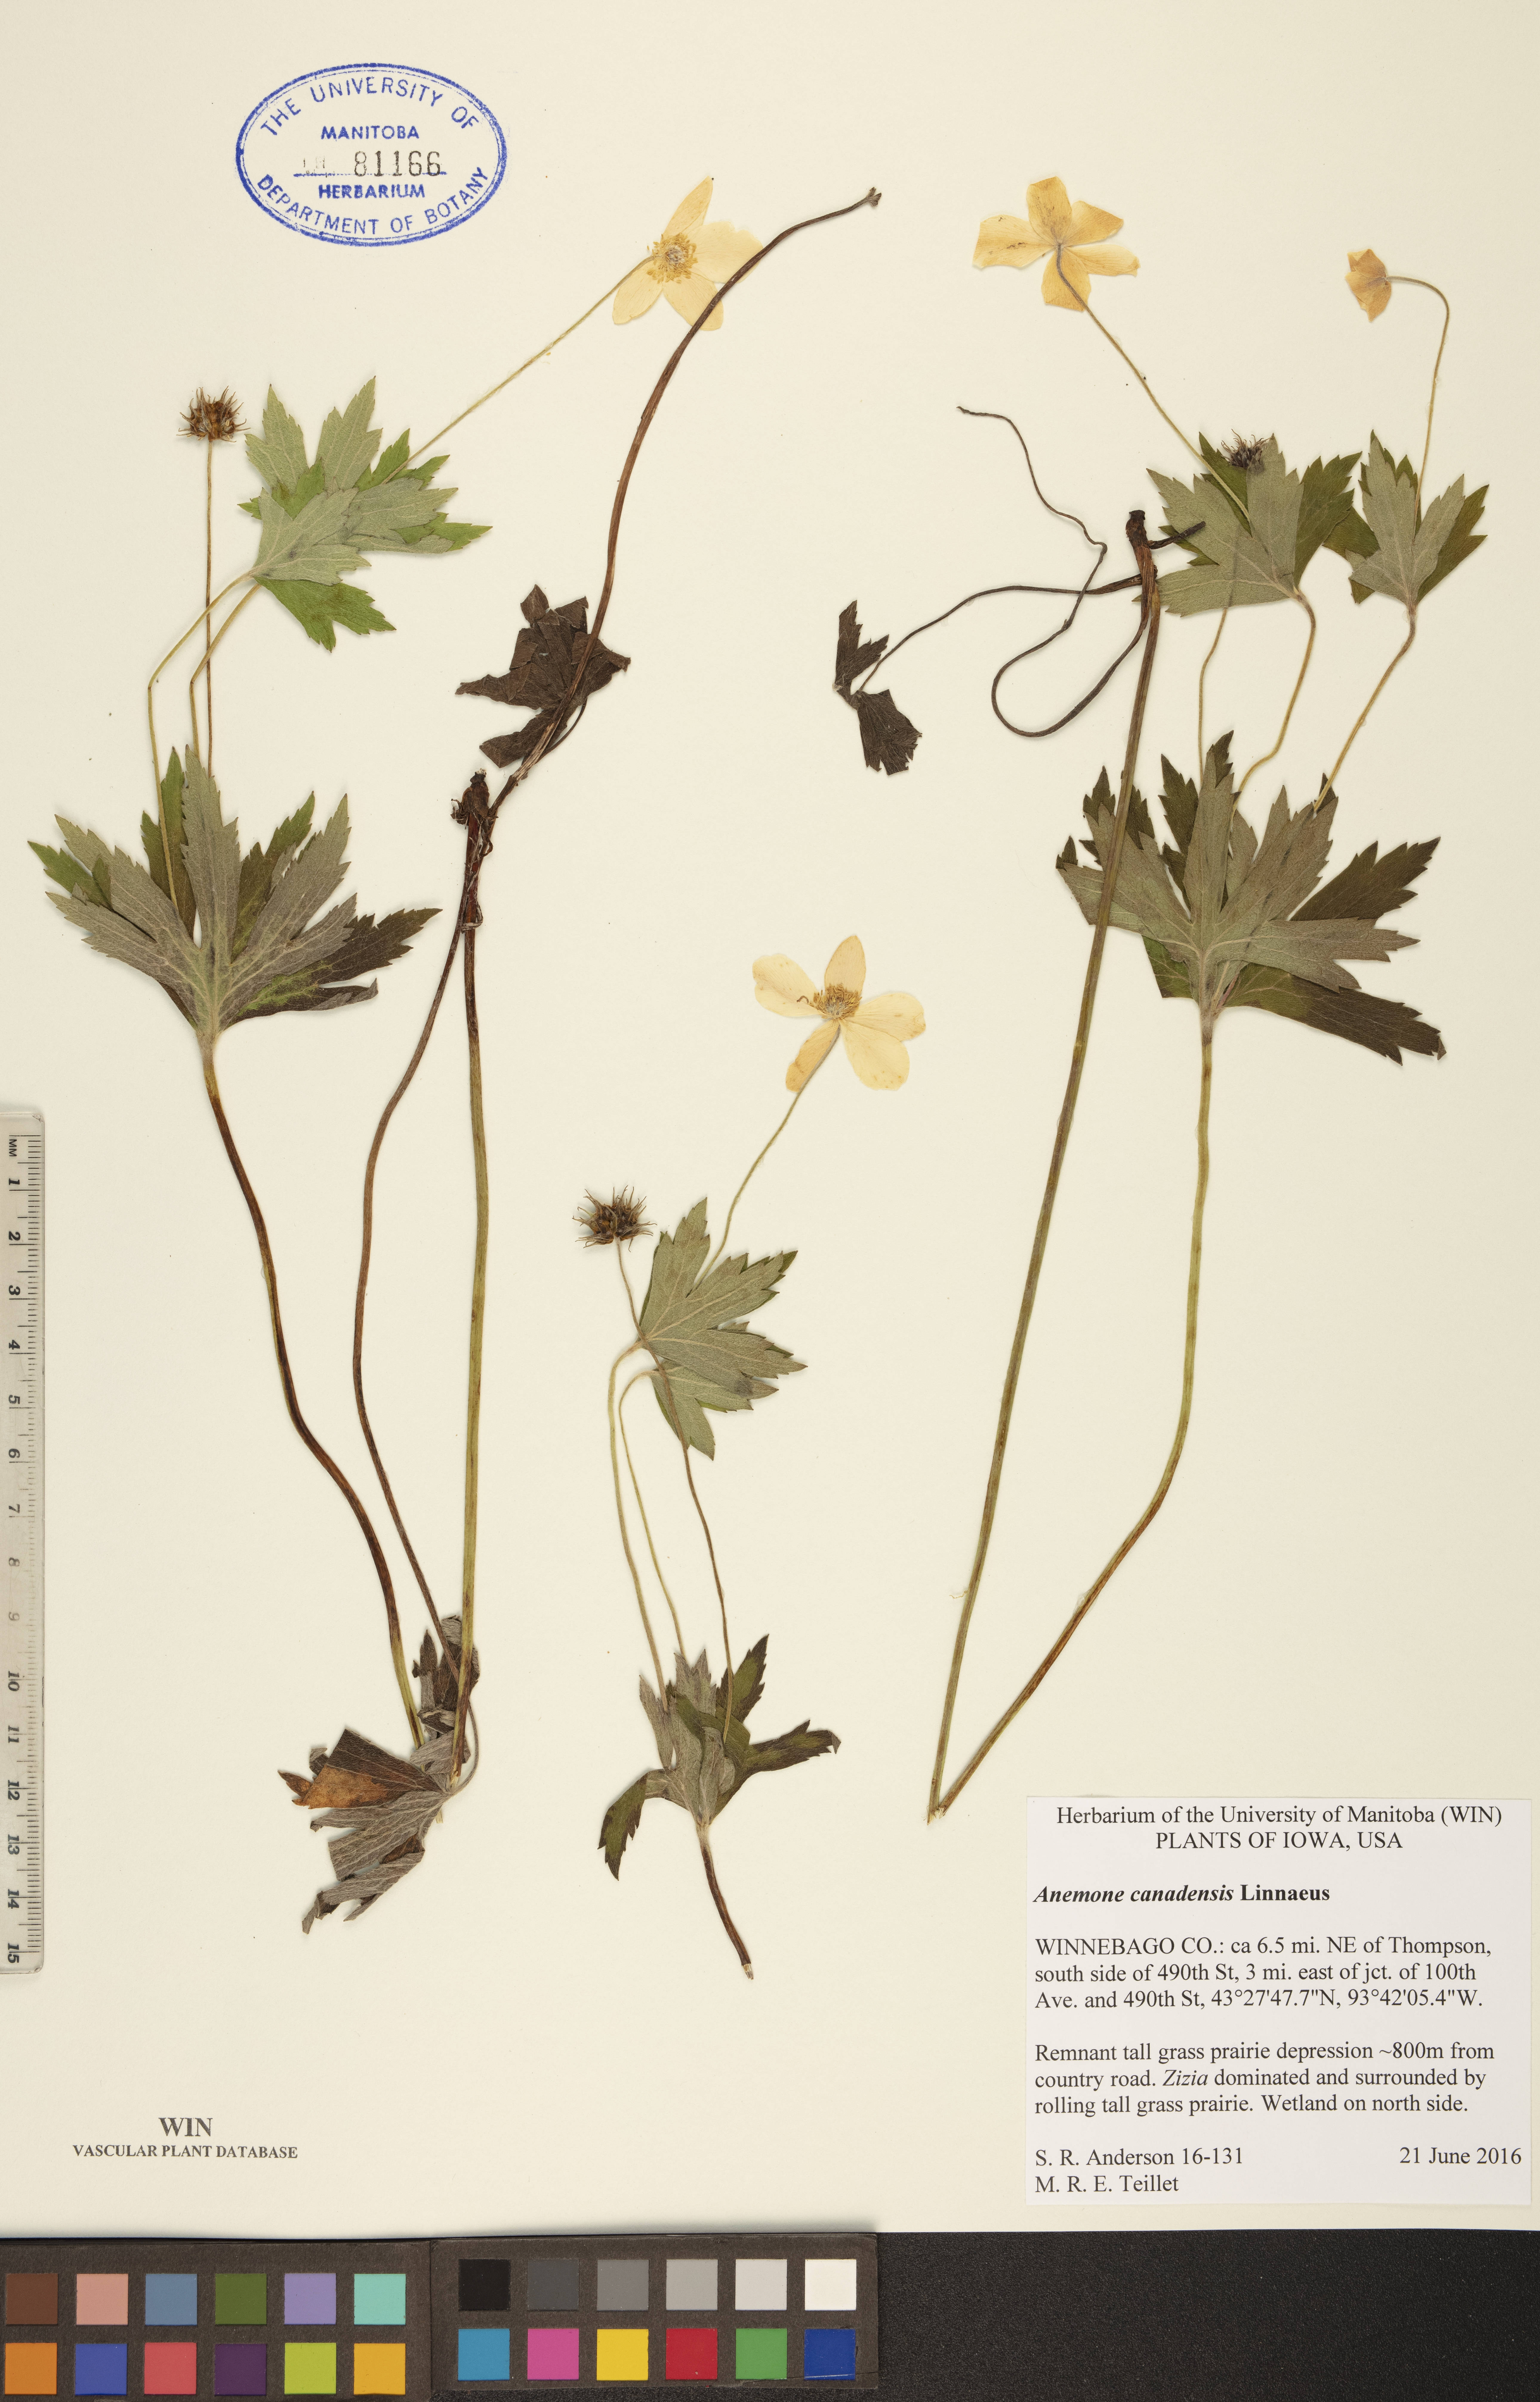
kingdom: Plantae
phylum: Tracheophyta
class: Magnoliopsida
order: Ranunculales
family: Ranunculaceae
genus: Anemonastrum
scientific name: Anemonastrum canadense
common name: Canada anemone
